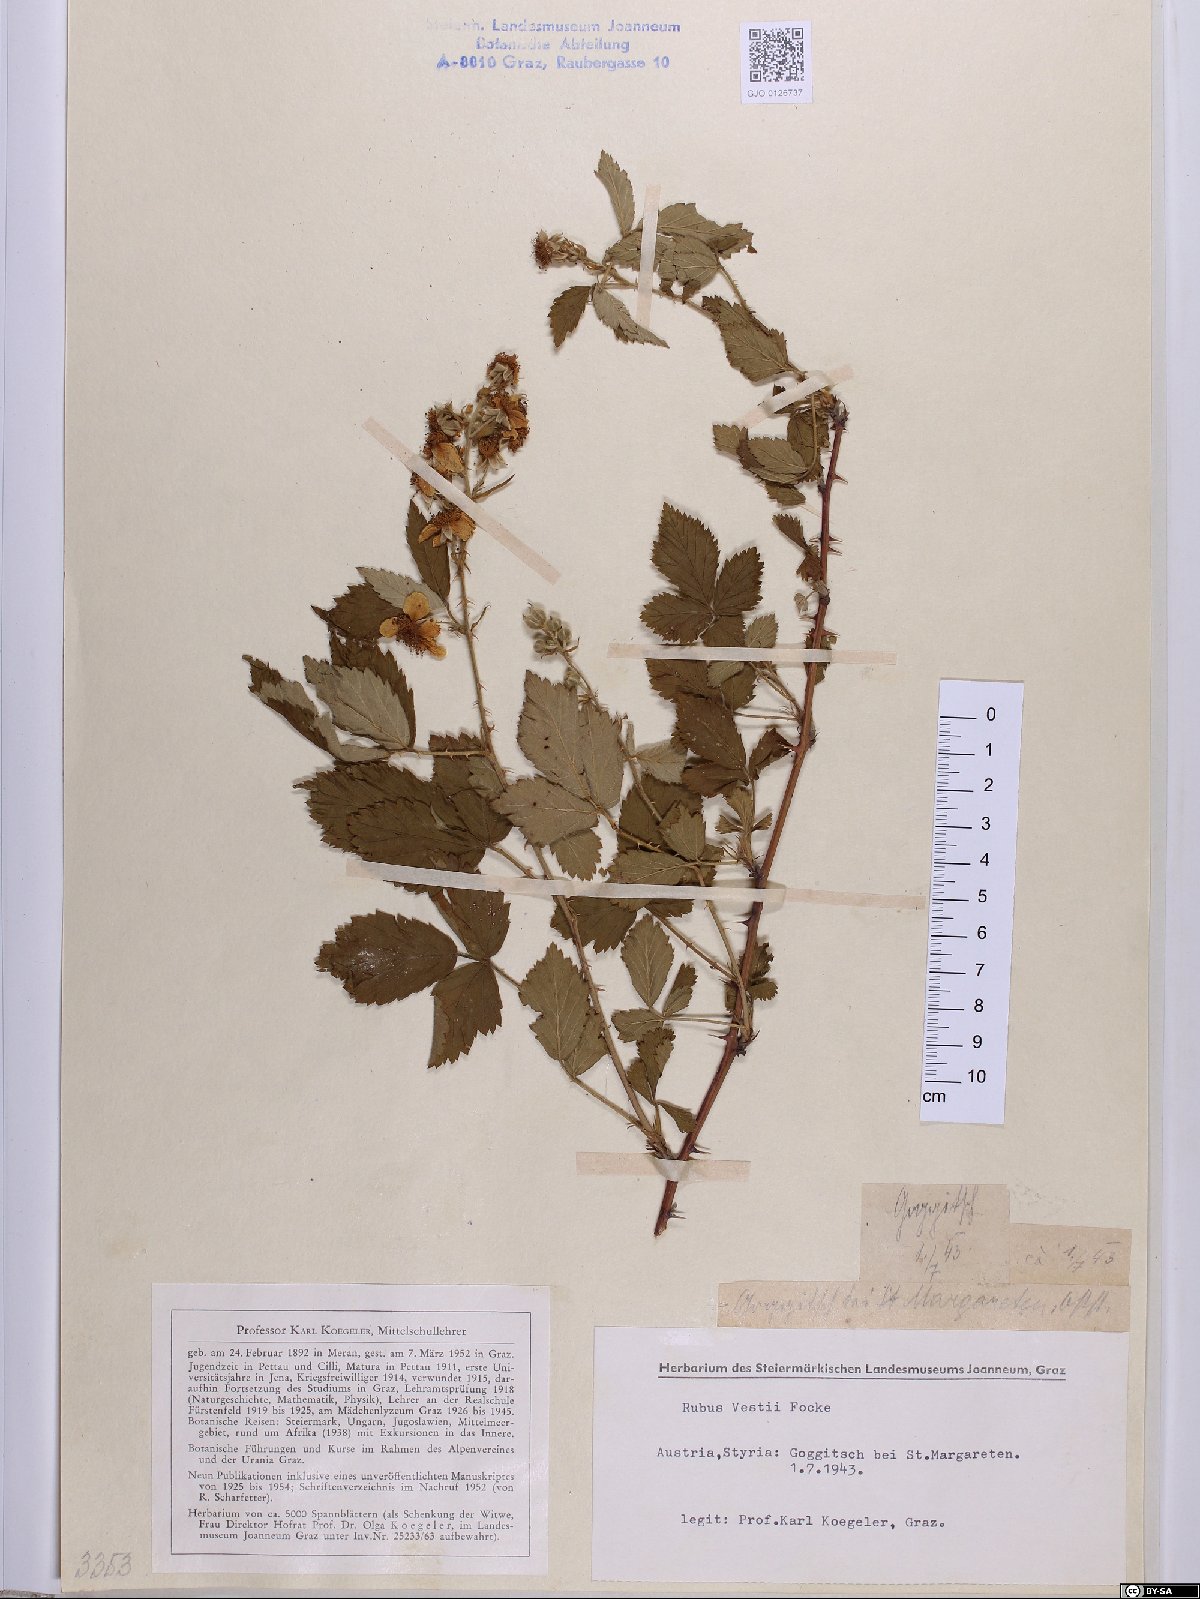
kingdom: Plantae
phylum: Tracheophyta
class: Magnoliopsida
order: Rosales
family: Rosaceae
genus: Rubus
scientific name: Rubus constrictus
